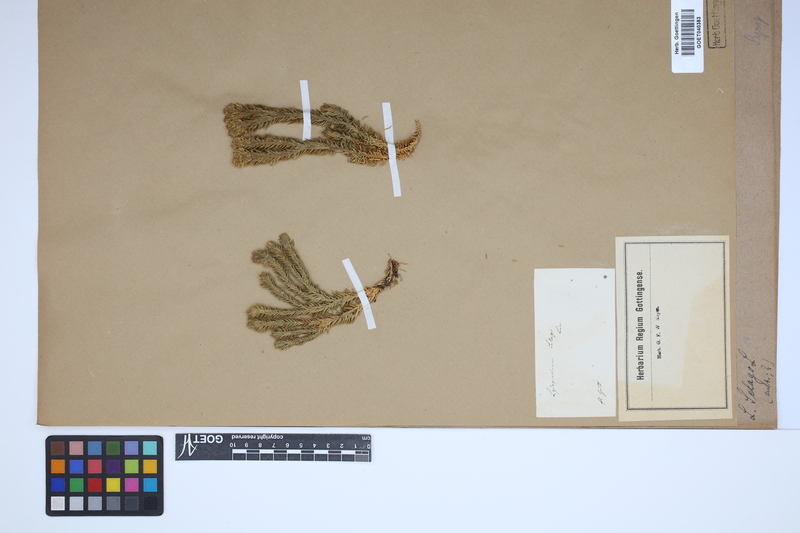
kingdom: Plantae
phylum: Tracheophyta
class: Lycopodiopsida
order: Lycopodiales
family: Lycopodiaceae
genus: Huperzia
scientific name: Huperzia selago
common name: Northern firmoss
